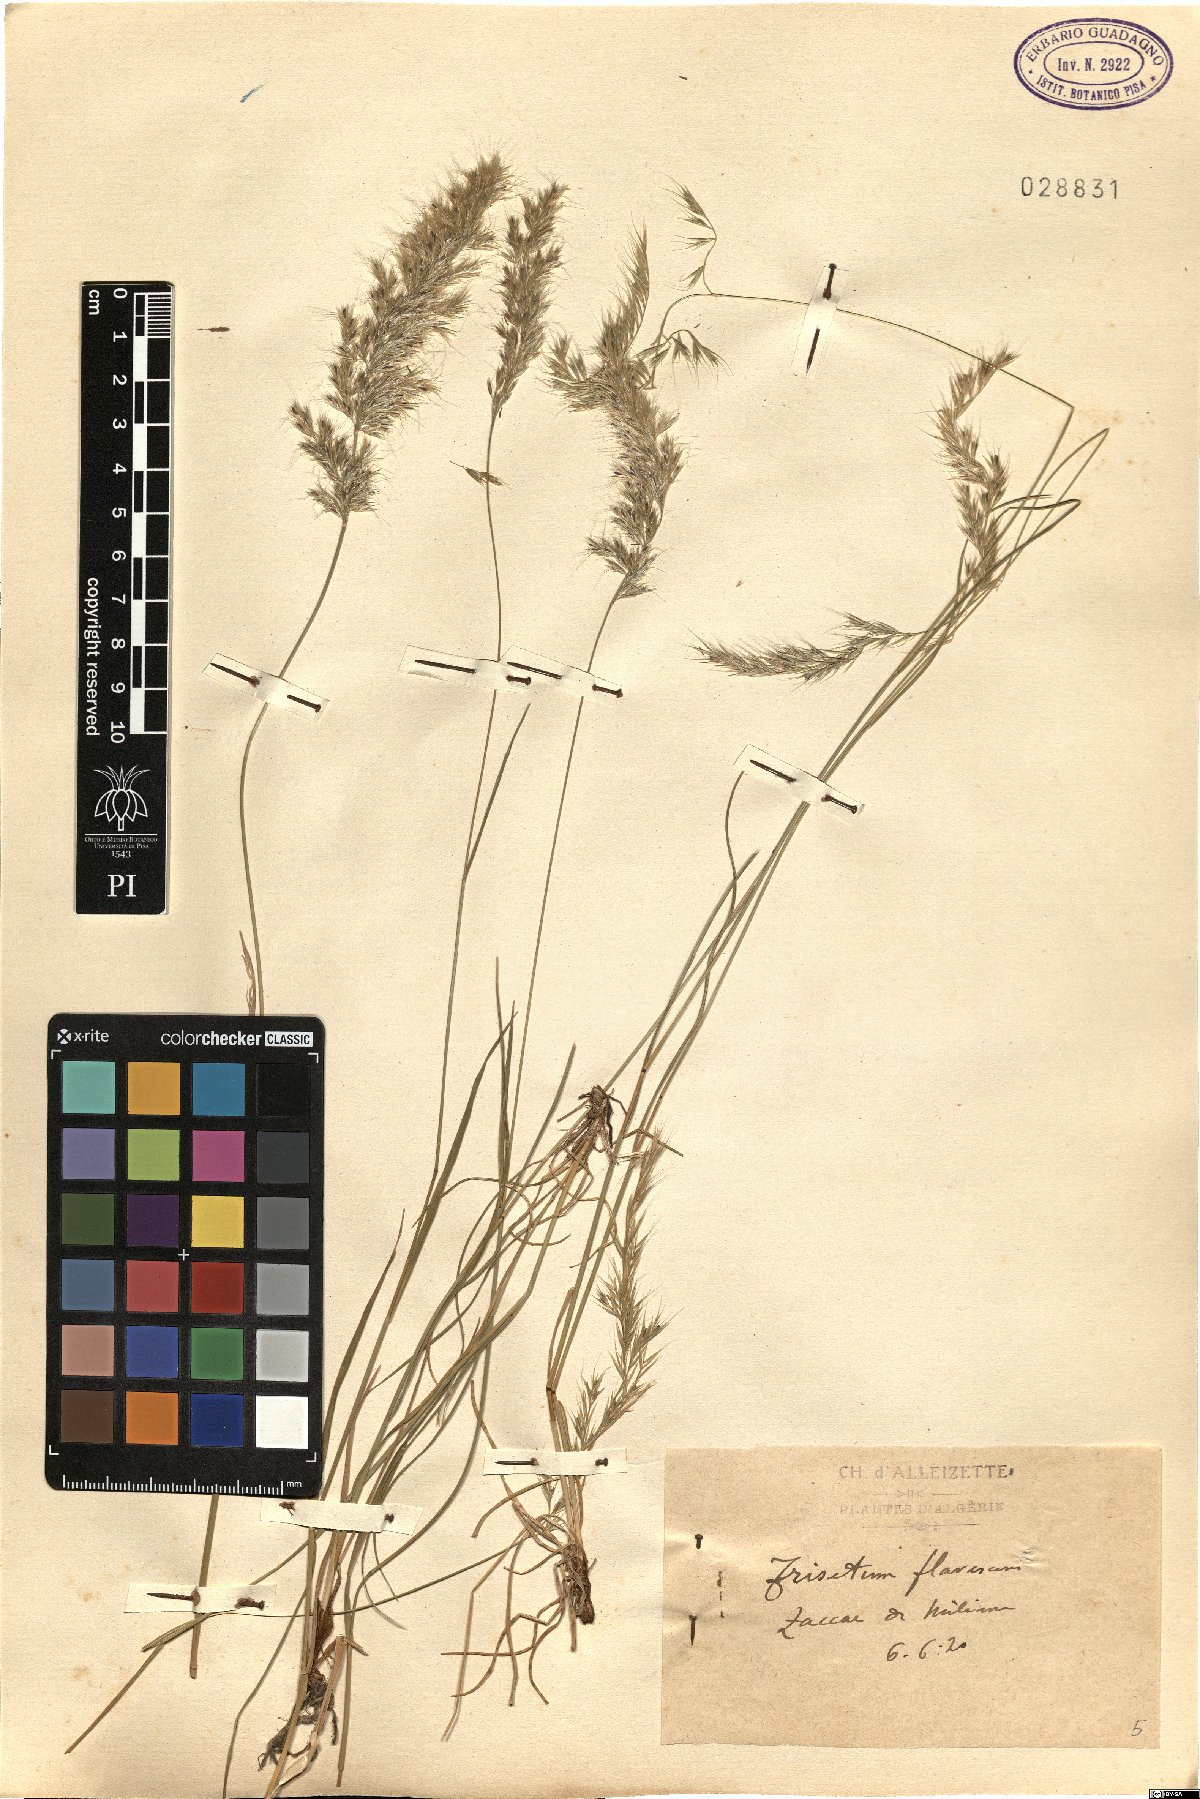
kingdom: Plantae
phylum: Tracheophyta
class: Liliopsida
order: Poales
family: Poaceae
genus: Trisetum
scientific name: Trisetum flavescens
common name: Yellow oat-grass
